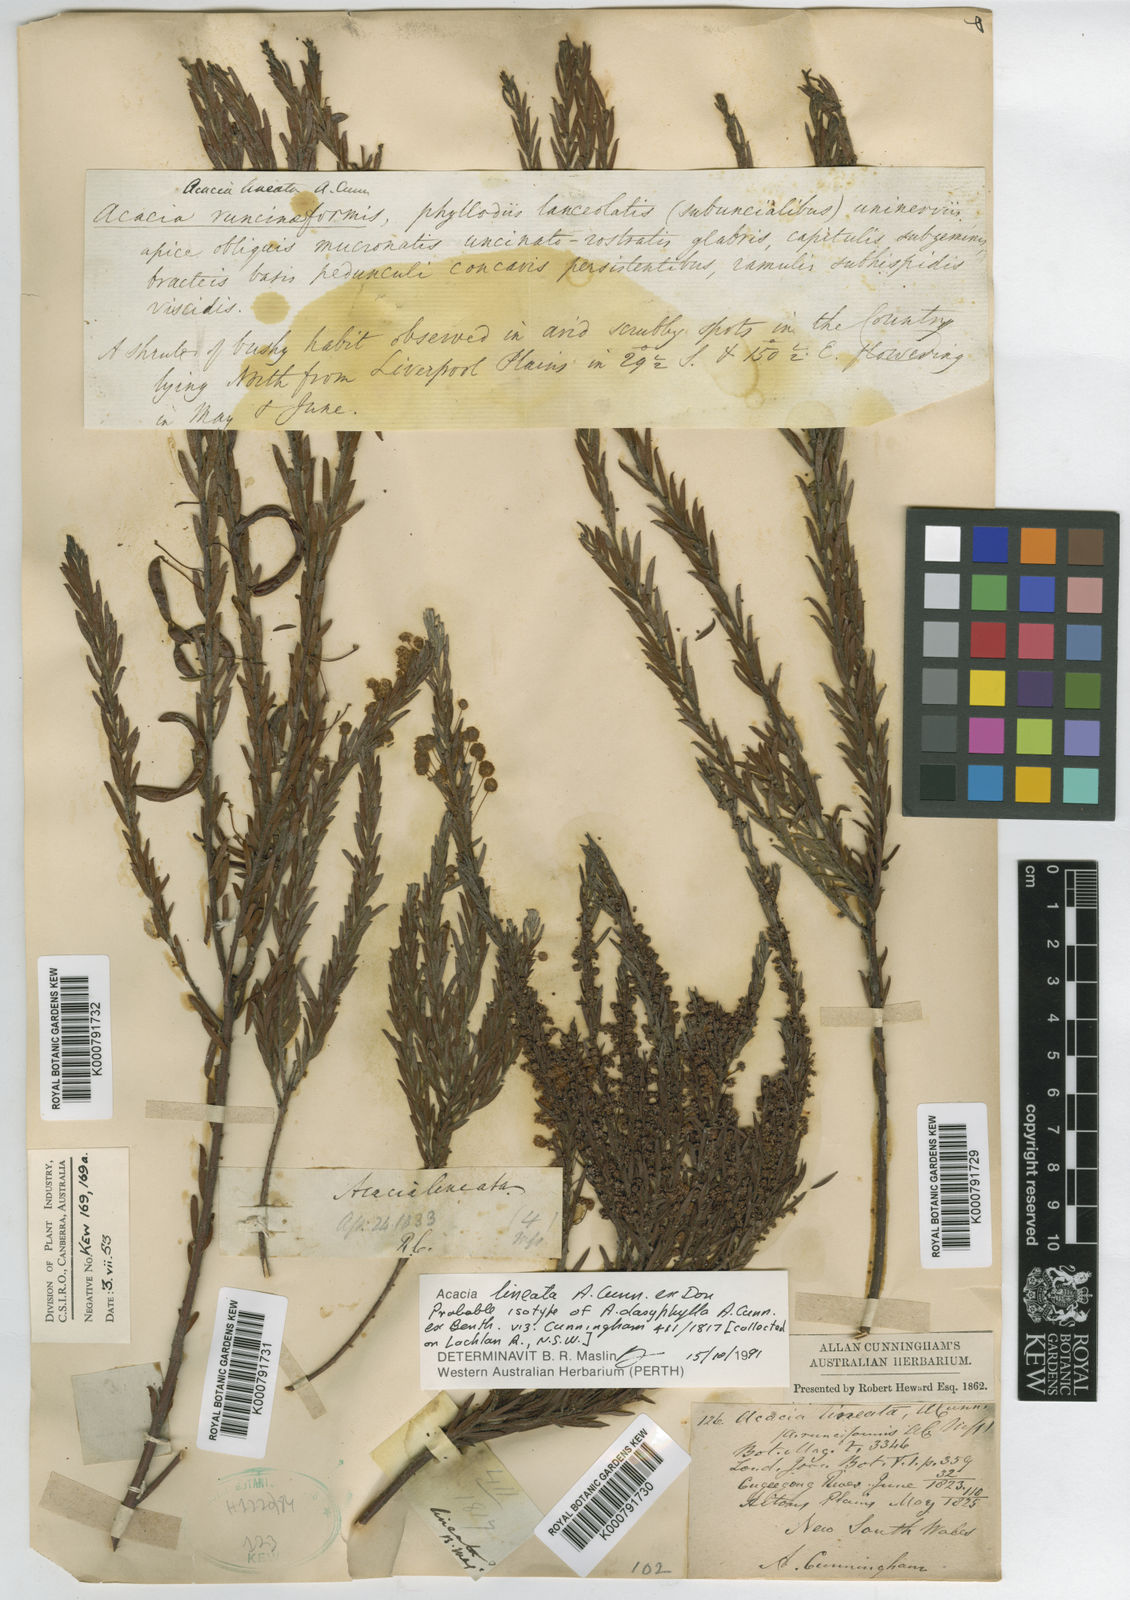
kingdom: Plantae
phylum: Tracheophyta
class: Magnoliopsida
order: Fabales
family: Fabaceae
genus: Acacia
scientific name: Acacia lineata
